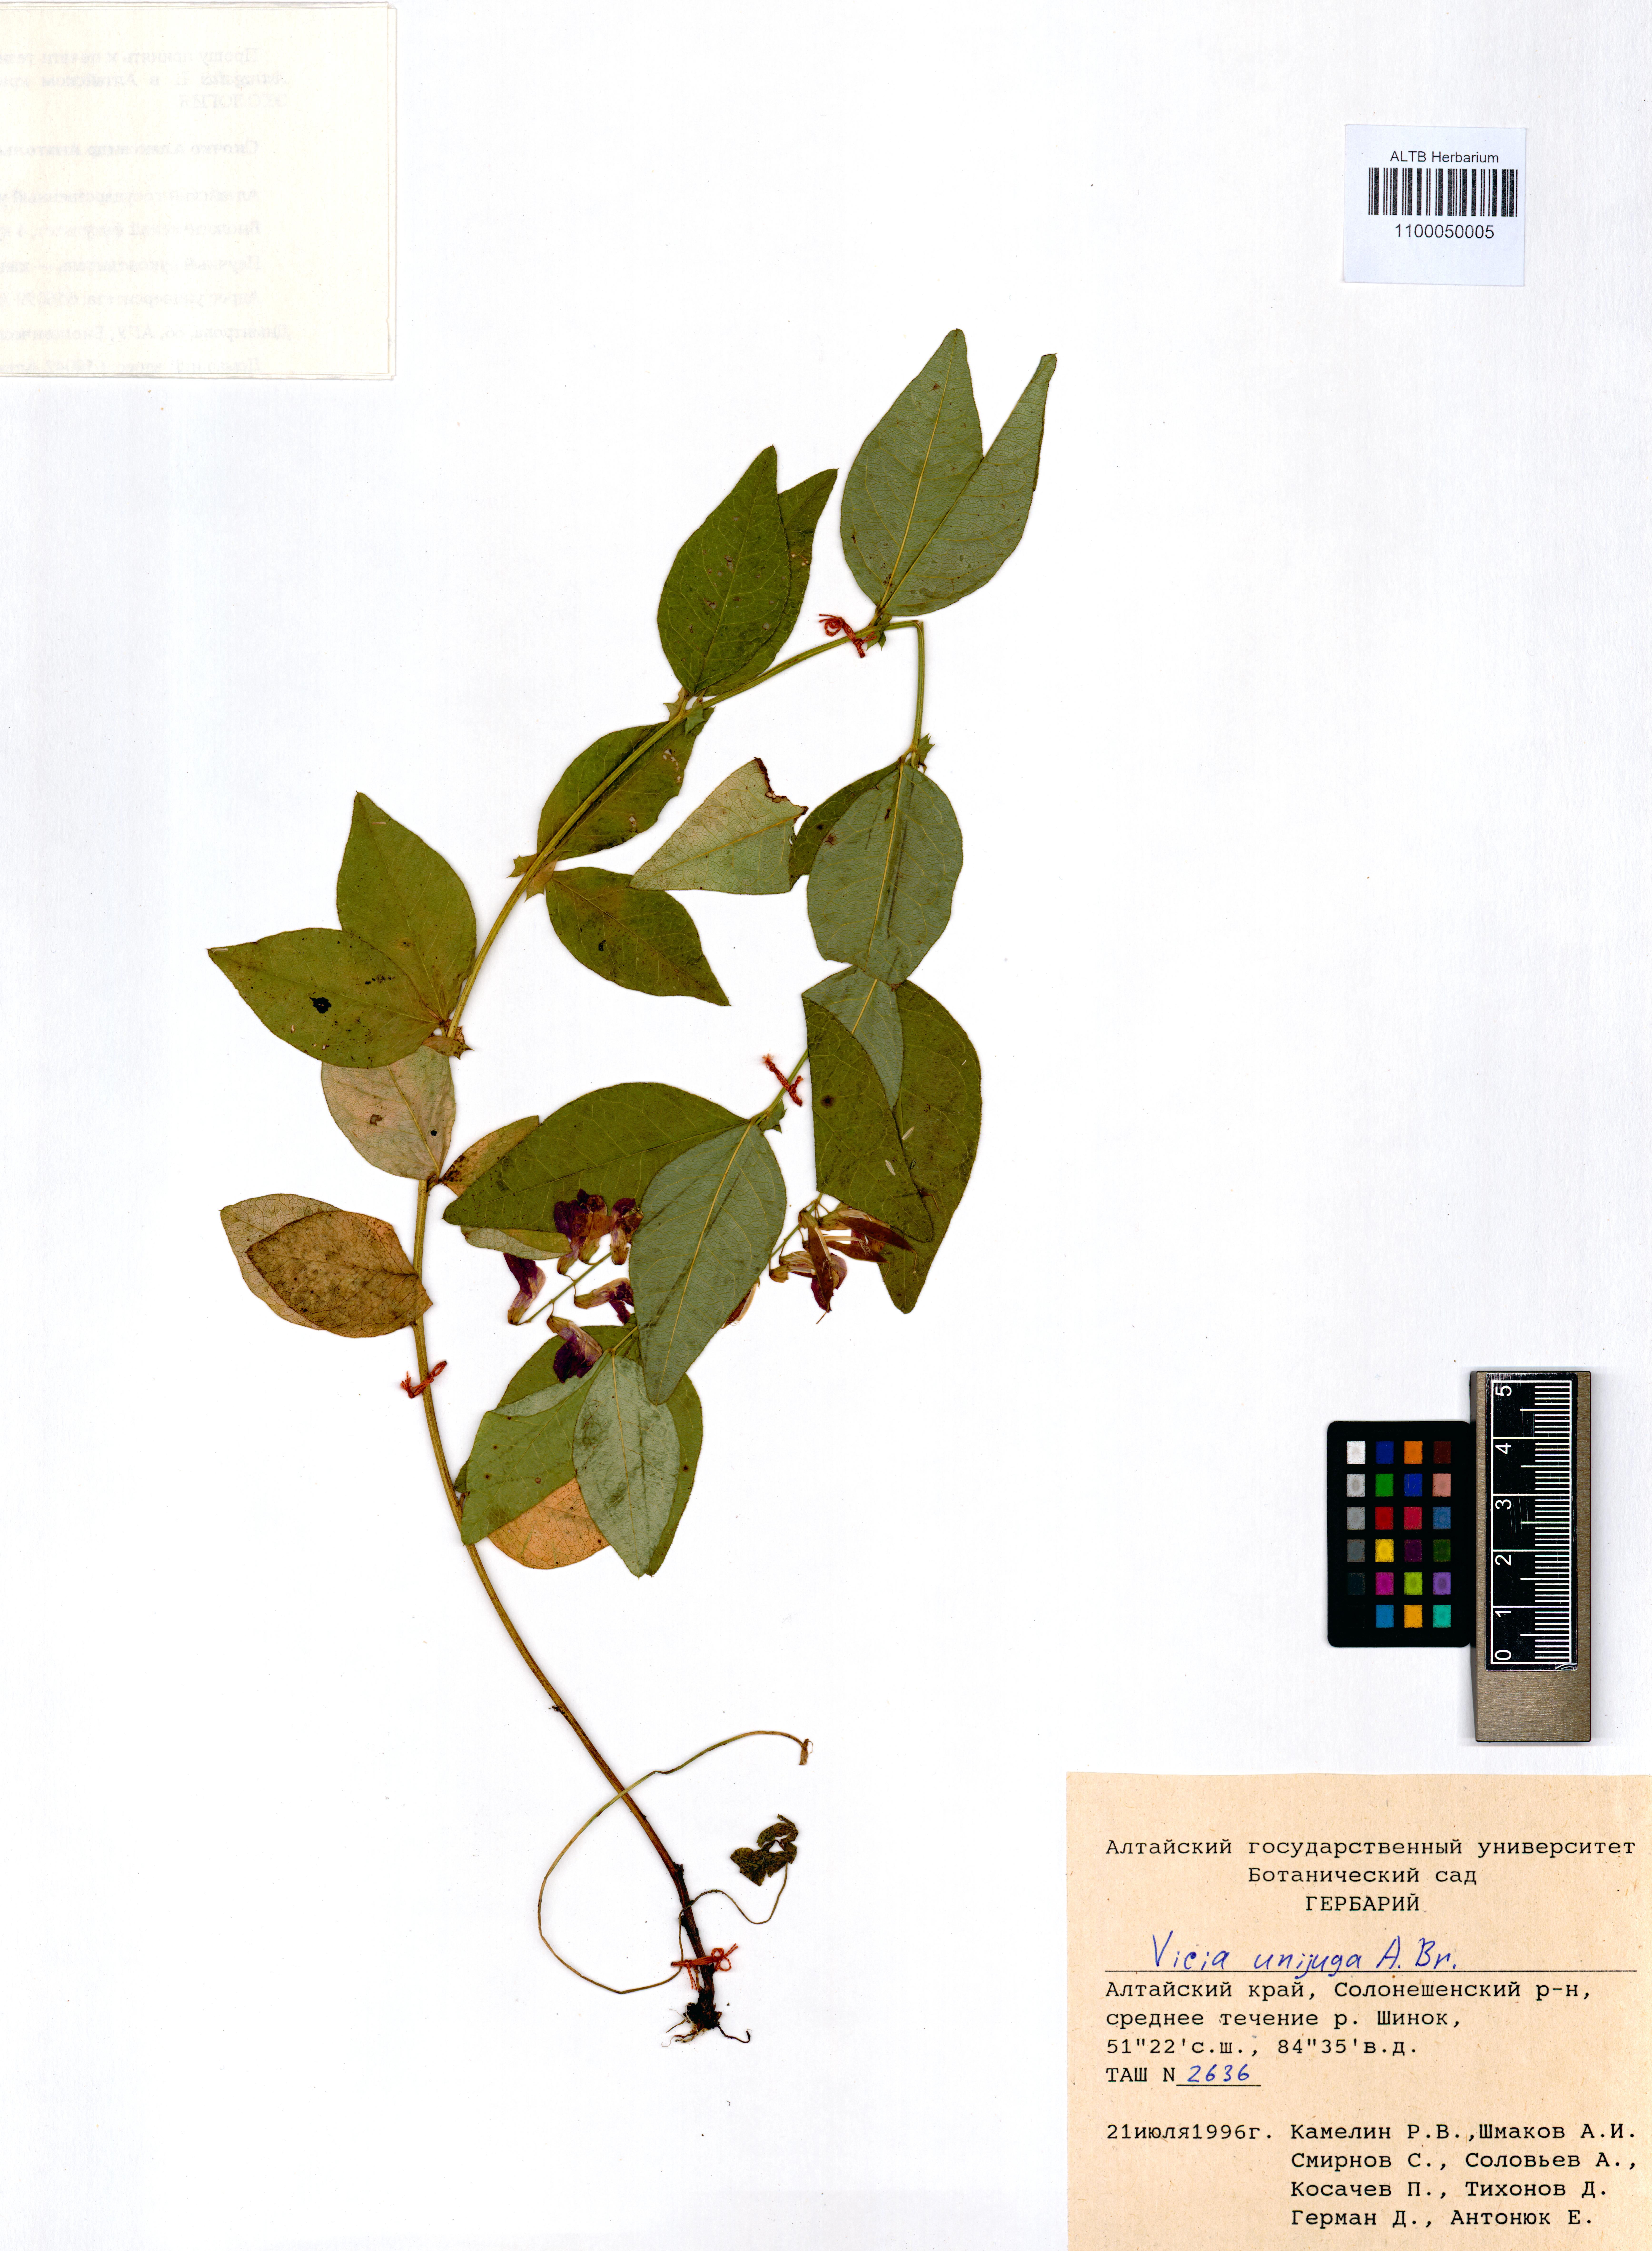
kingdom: Plantae
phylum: Tracheophyta
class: Magnoliopsida
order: Fabales
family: Fabaceae
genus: Vicia
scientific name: Vicia unijuga
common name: Two-leaf vetch
